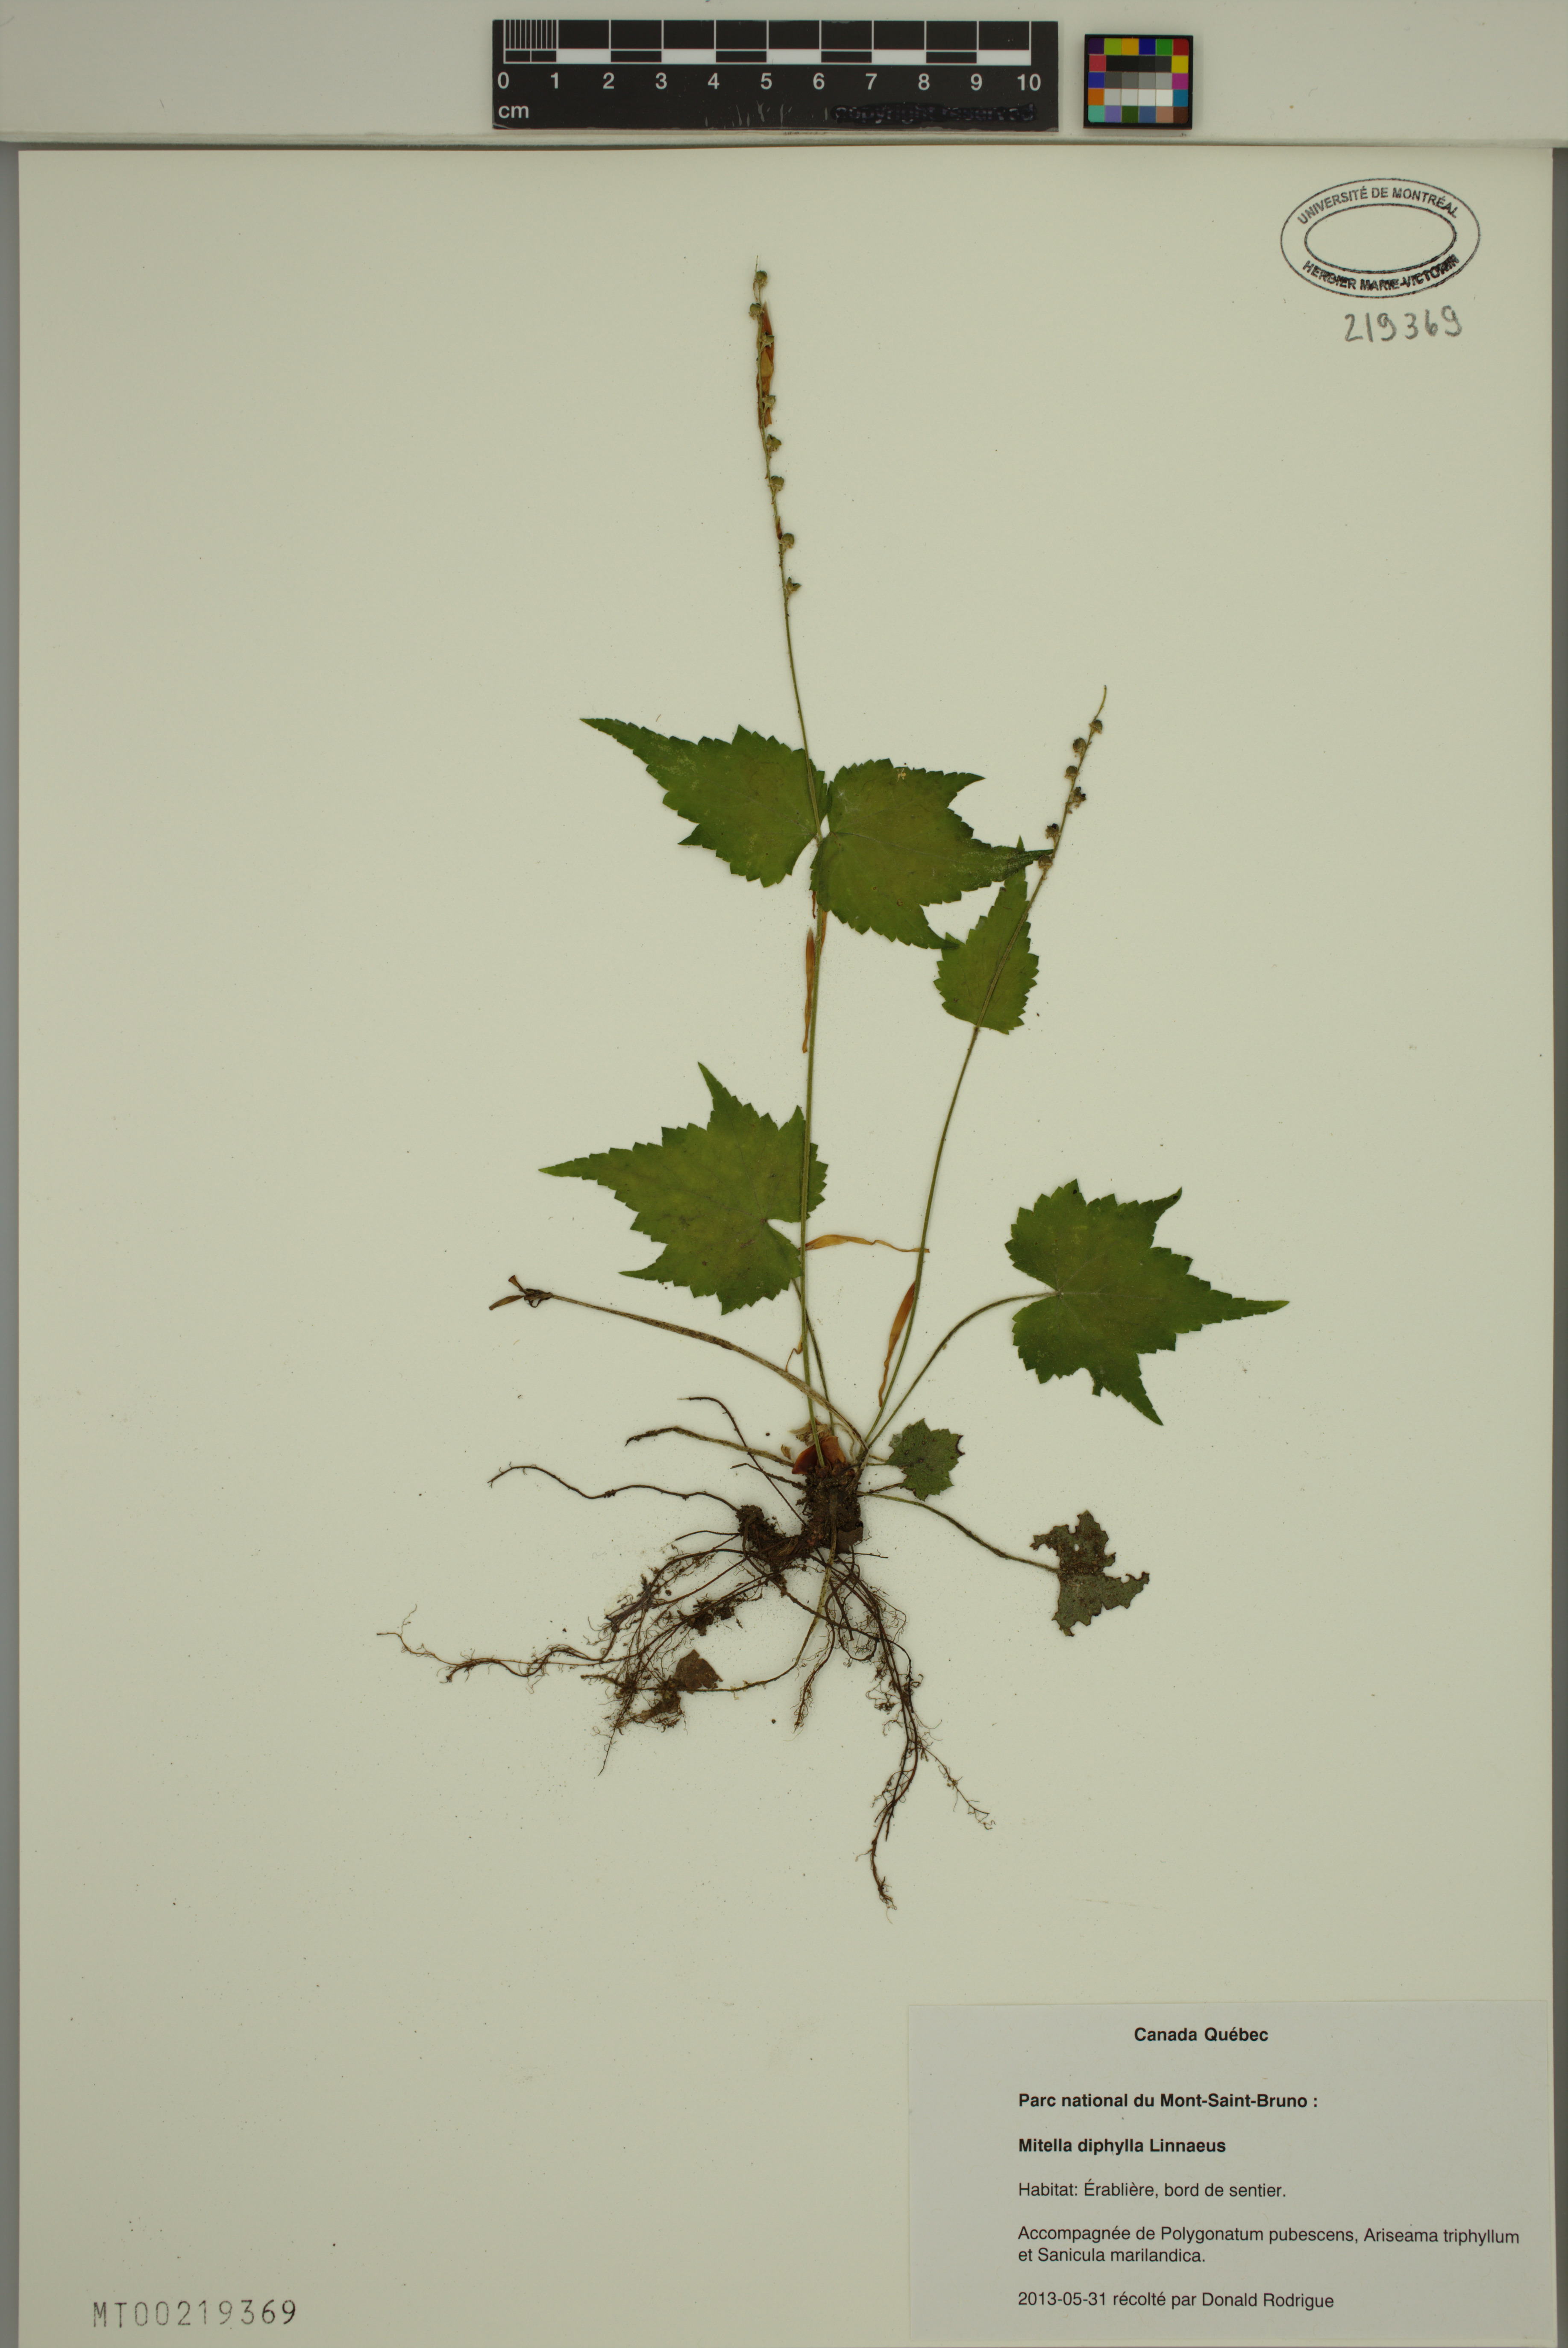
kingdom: Plantae
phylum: Tracheophyta
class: Magnoliopsida
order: Saxifragales
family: Saxifragaceae
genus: Mitella
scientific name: Mitella diphylla
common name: Coolwort
